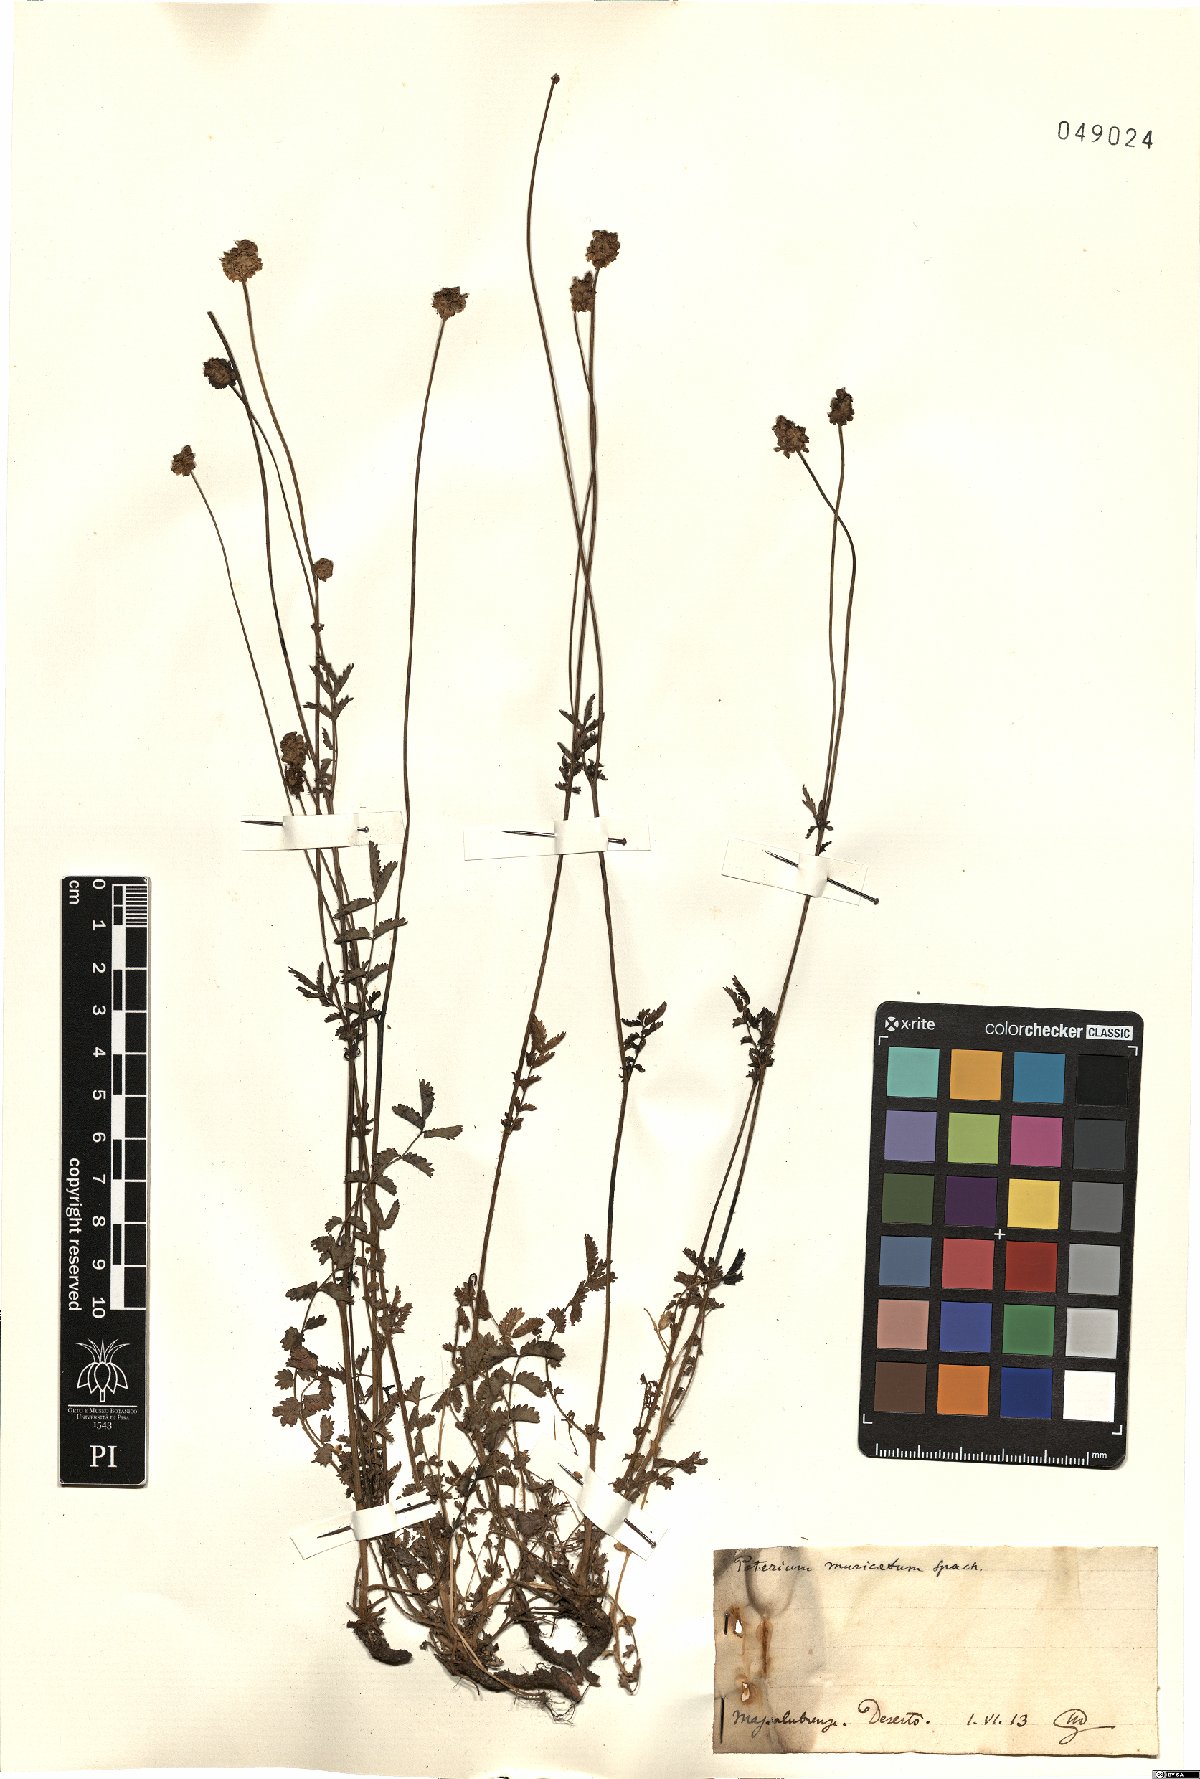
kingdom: Plantae
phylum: Tracheophyta
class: Magnoliopsida
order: Rosales
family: Rosaceae
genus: Poterium
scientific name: Poterium sanguisorba
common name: Salad burnet
